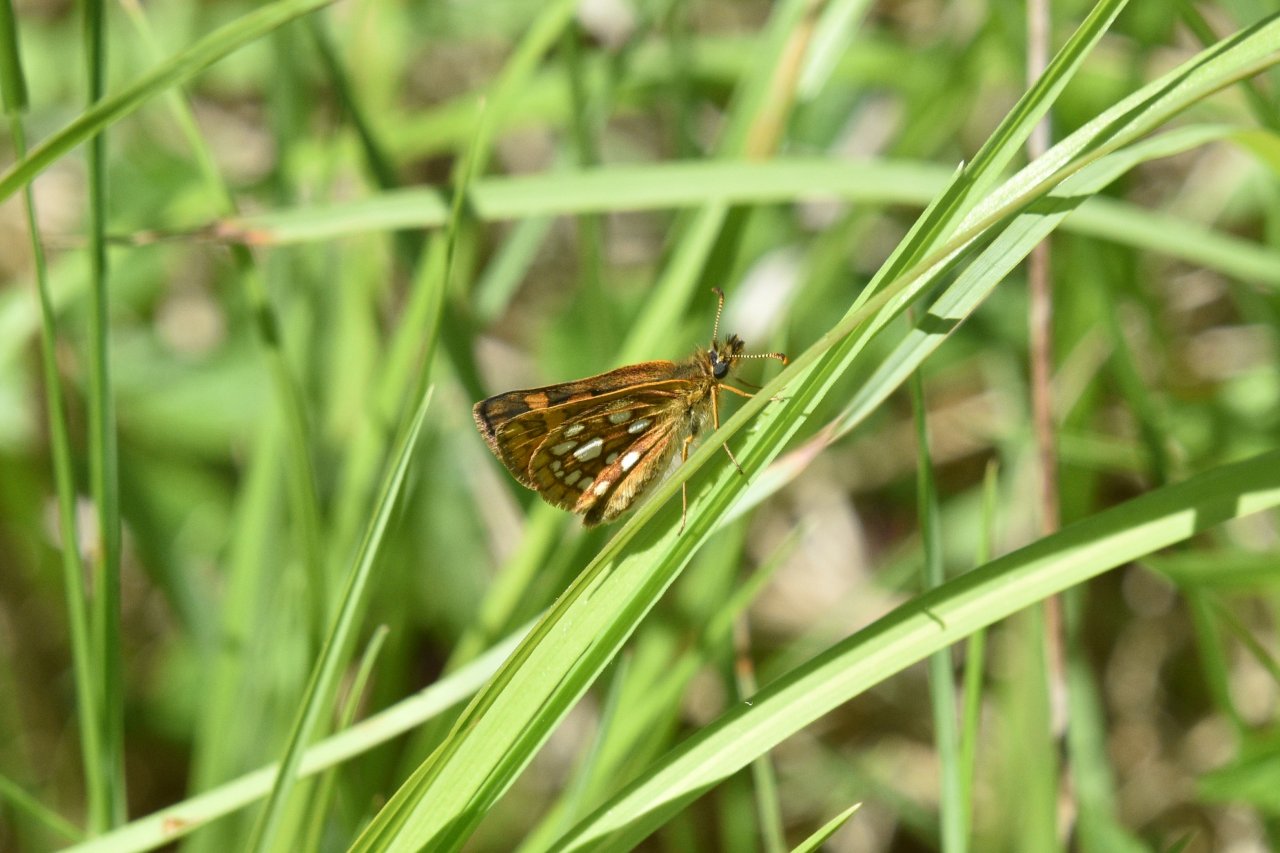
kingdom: Animalia
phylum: Arthropoda
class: Insecta
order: Lepidoptera
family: Hesperiidae
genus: Carterocephalus
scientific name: Carterocephalus palaemon
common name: Chequered Skipper
